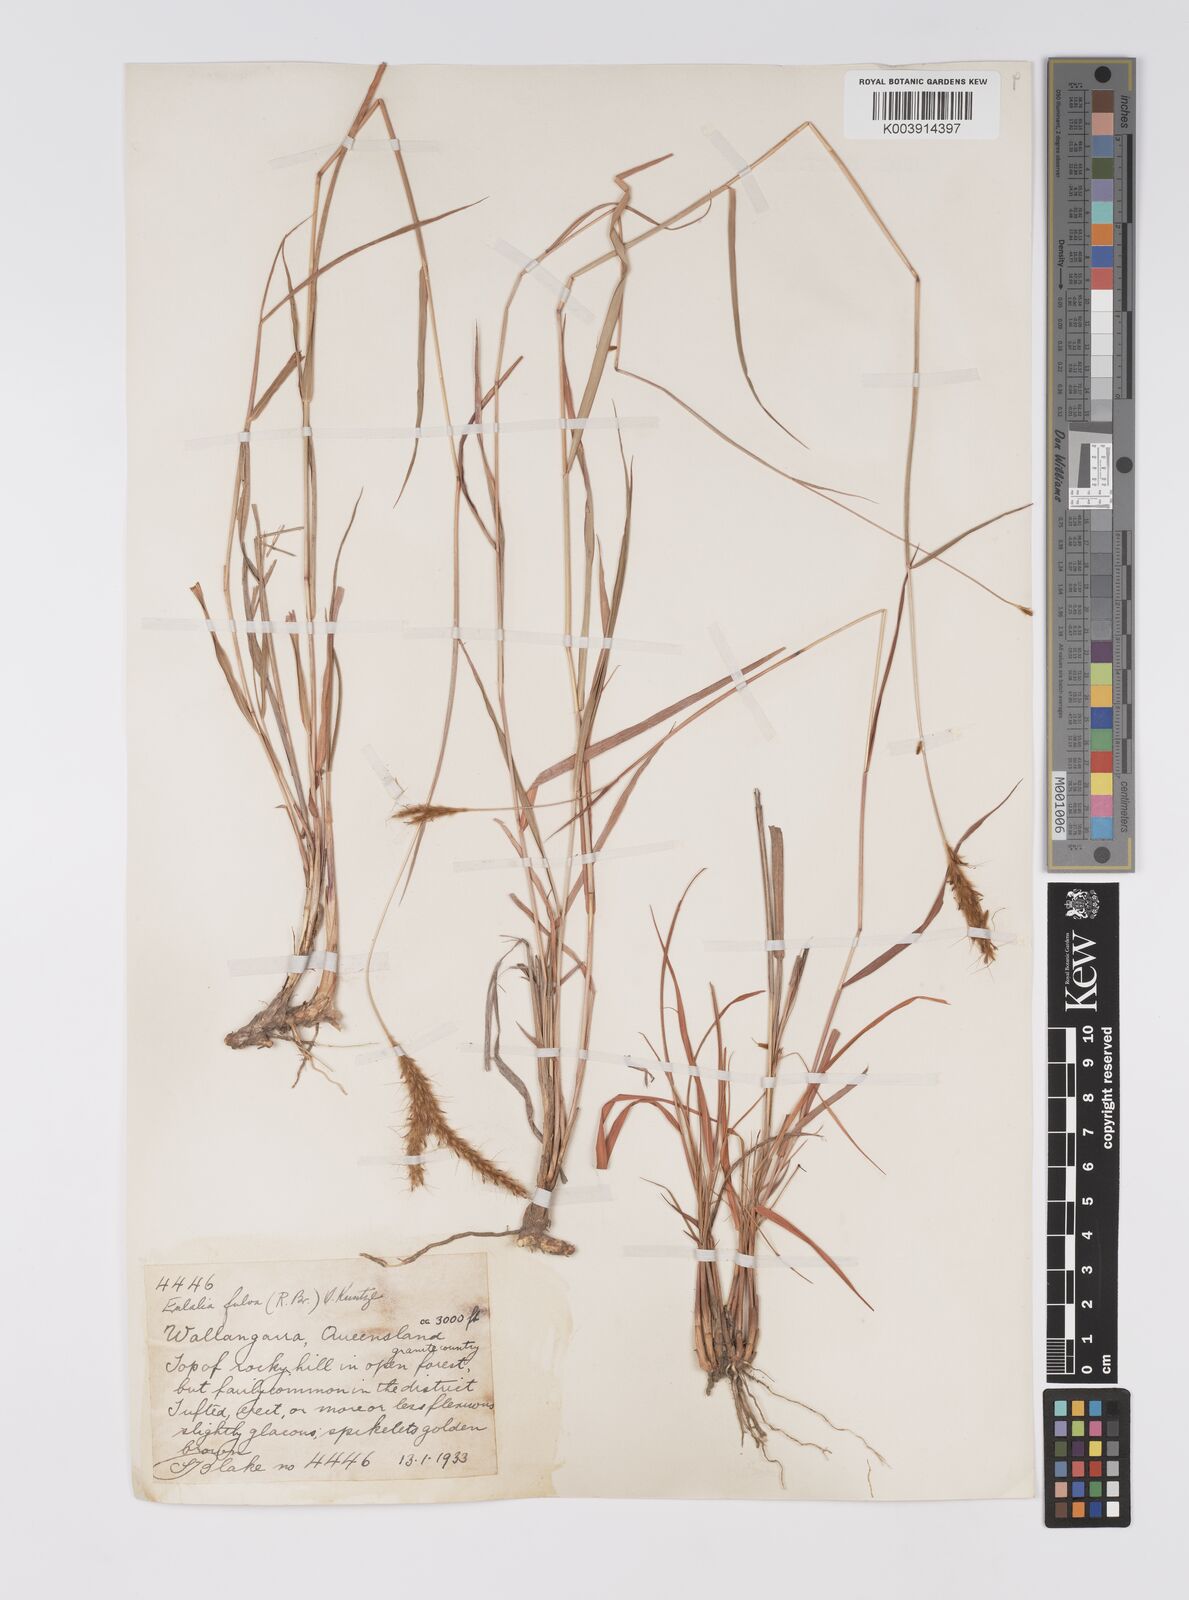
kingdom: Plantae
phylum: Tracheophyta
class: Liliopsida
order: Poales
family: Poaceae
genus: Eulalia
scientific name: Eulalia aurea
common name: Silky browntop
